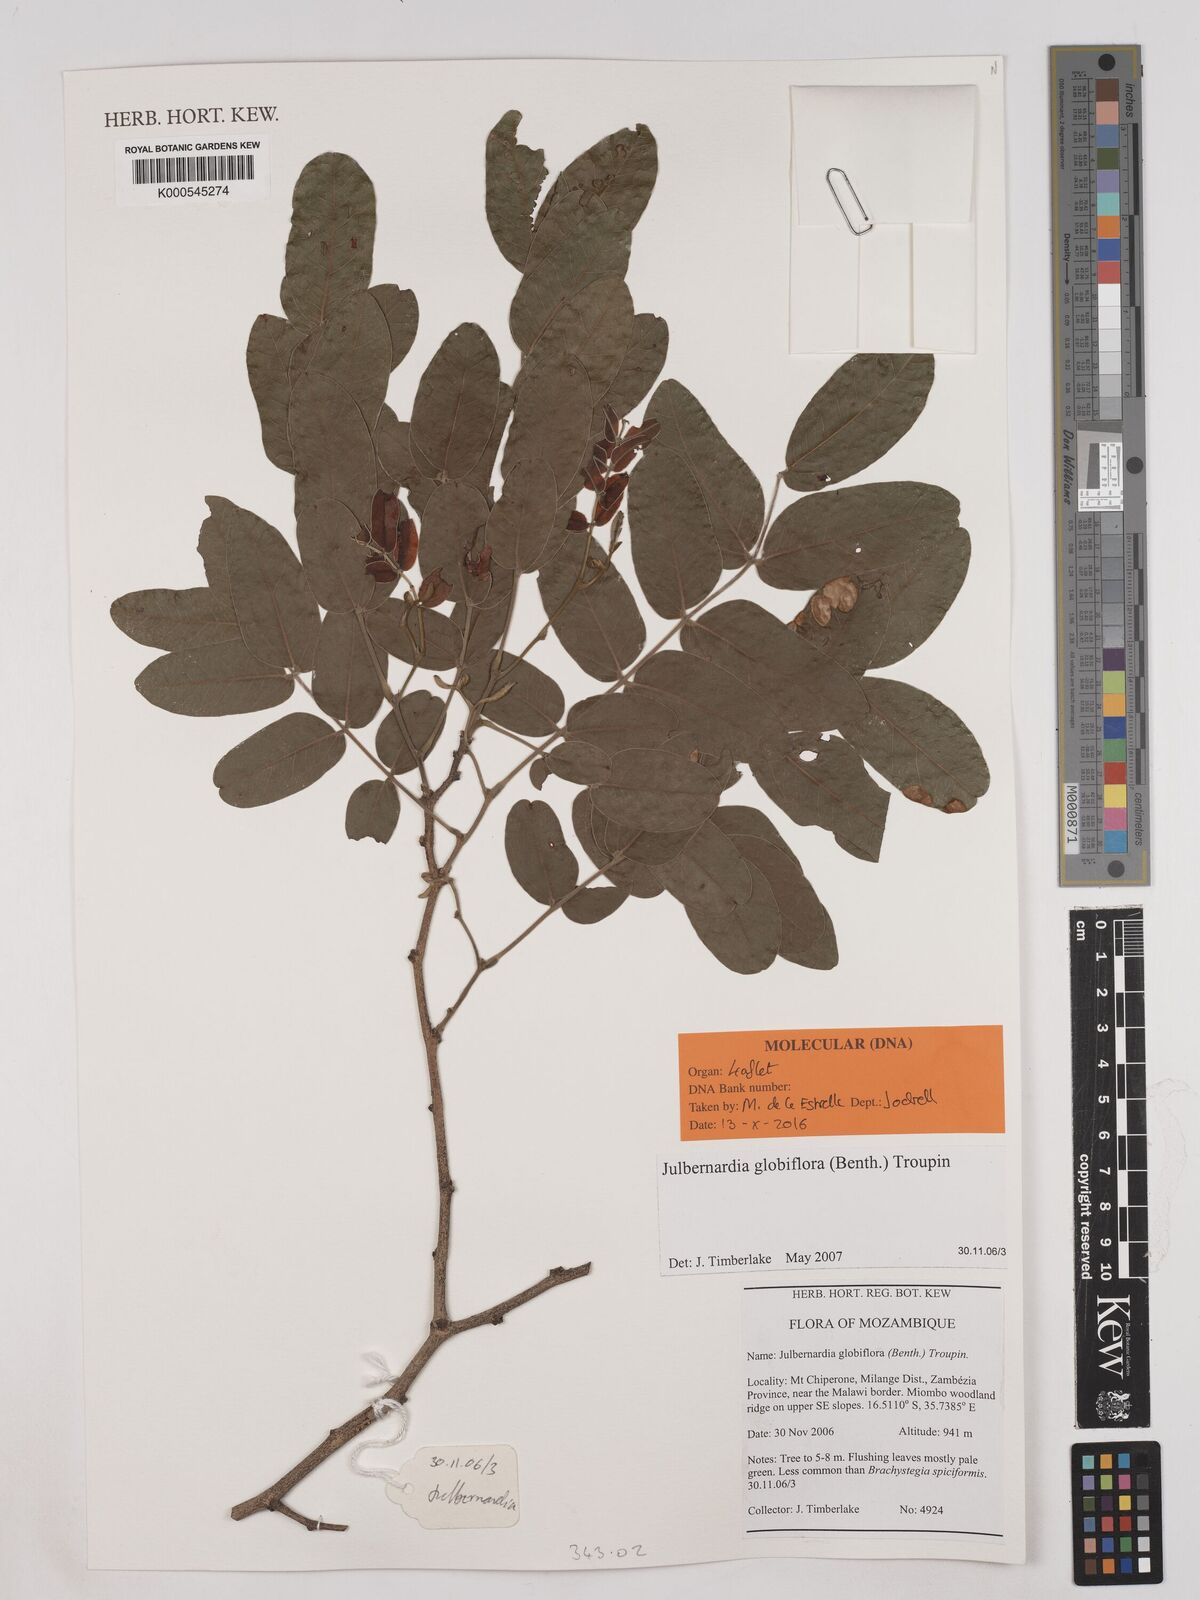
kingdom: Plantae
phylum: Tracheophyta
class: Magnoliopsida
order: Fabales
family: Fabaceae
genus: Julbernardia
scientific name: Julbernardia globiflora
